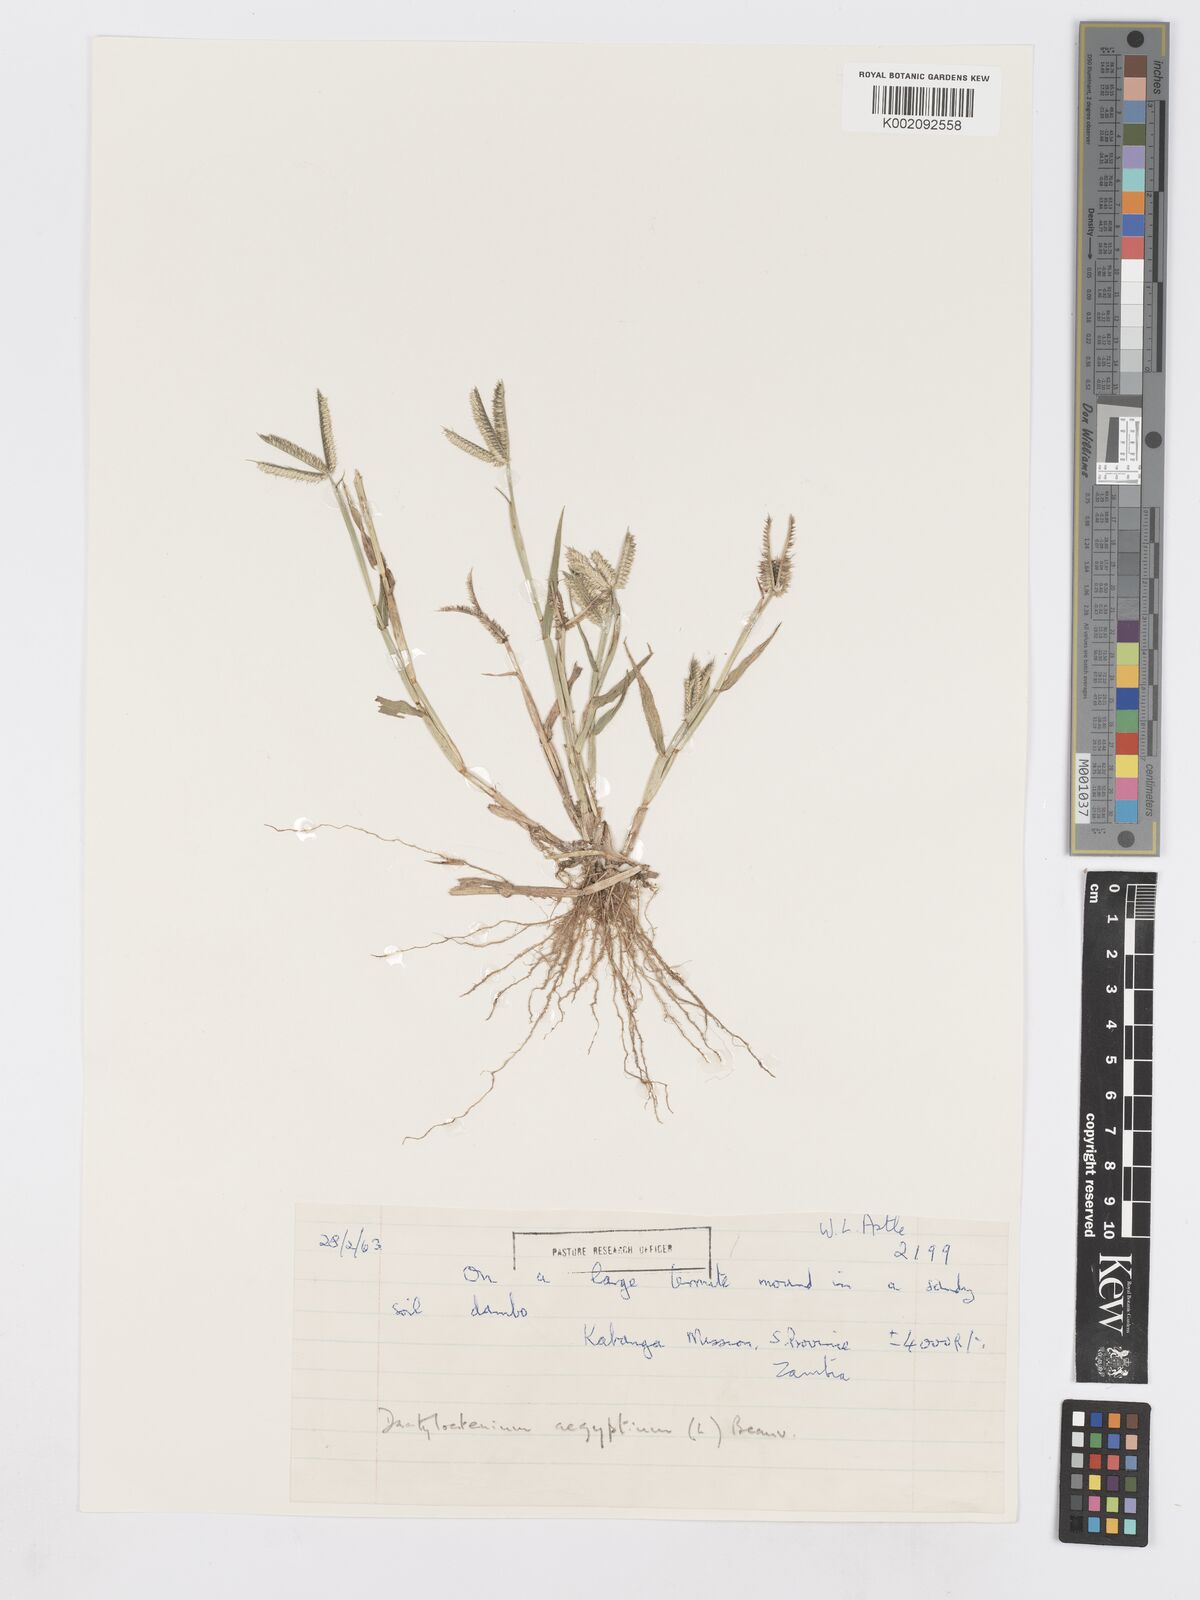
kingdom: Plantae
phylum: Tracheophyta
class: Liliopsida
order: Poales
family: Poaceae
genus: Dactyloctenium
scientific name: Dactyloctenium aegyptium
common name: Egyptian grass
